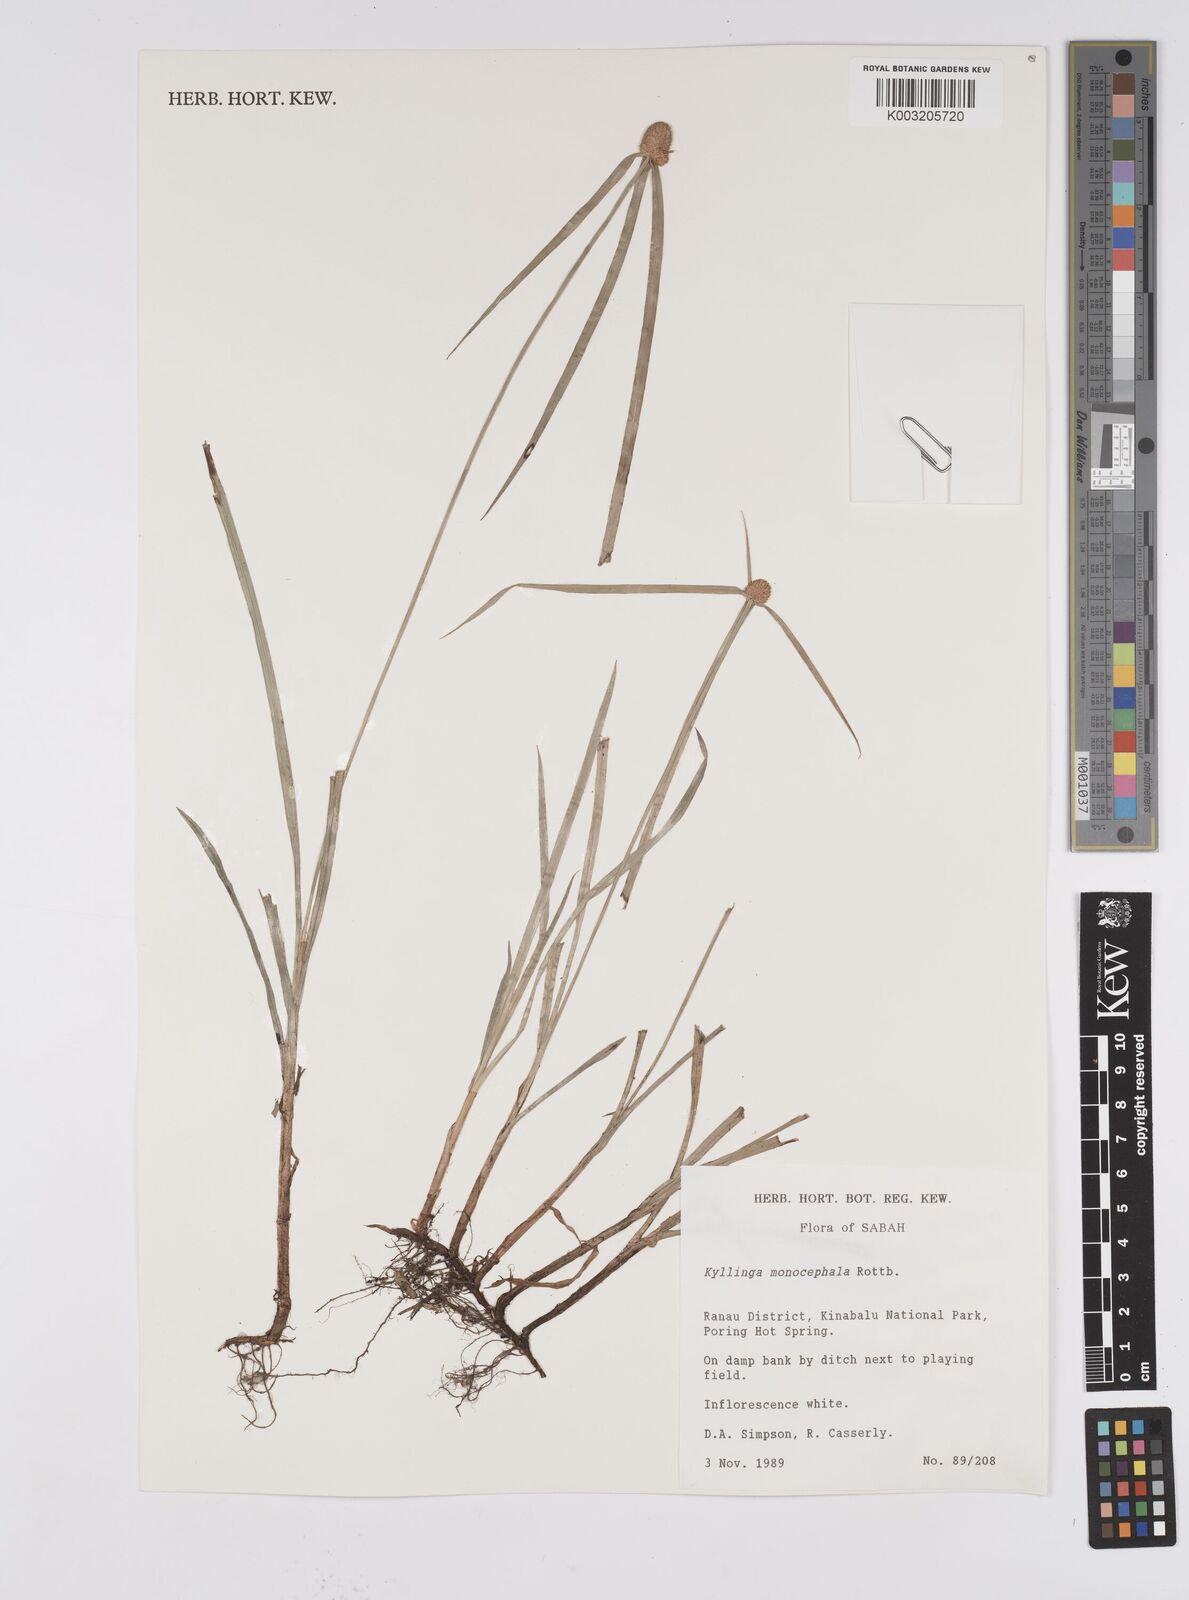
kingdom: Plantae
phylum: Tracheophyta
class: Liliopsida
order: Poales
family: Cyperaceae
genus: Cyperus
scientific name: Cyperus nemoralis
